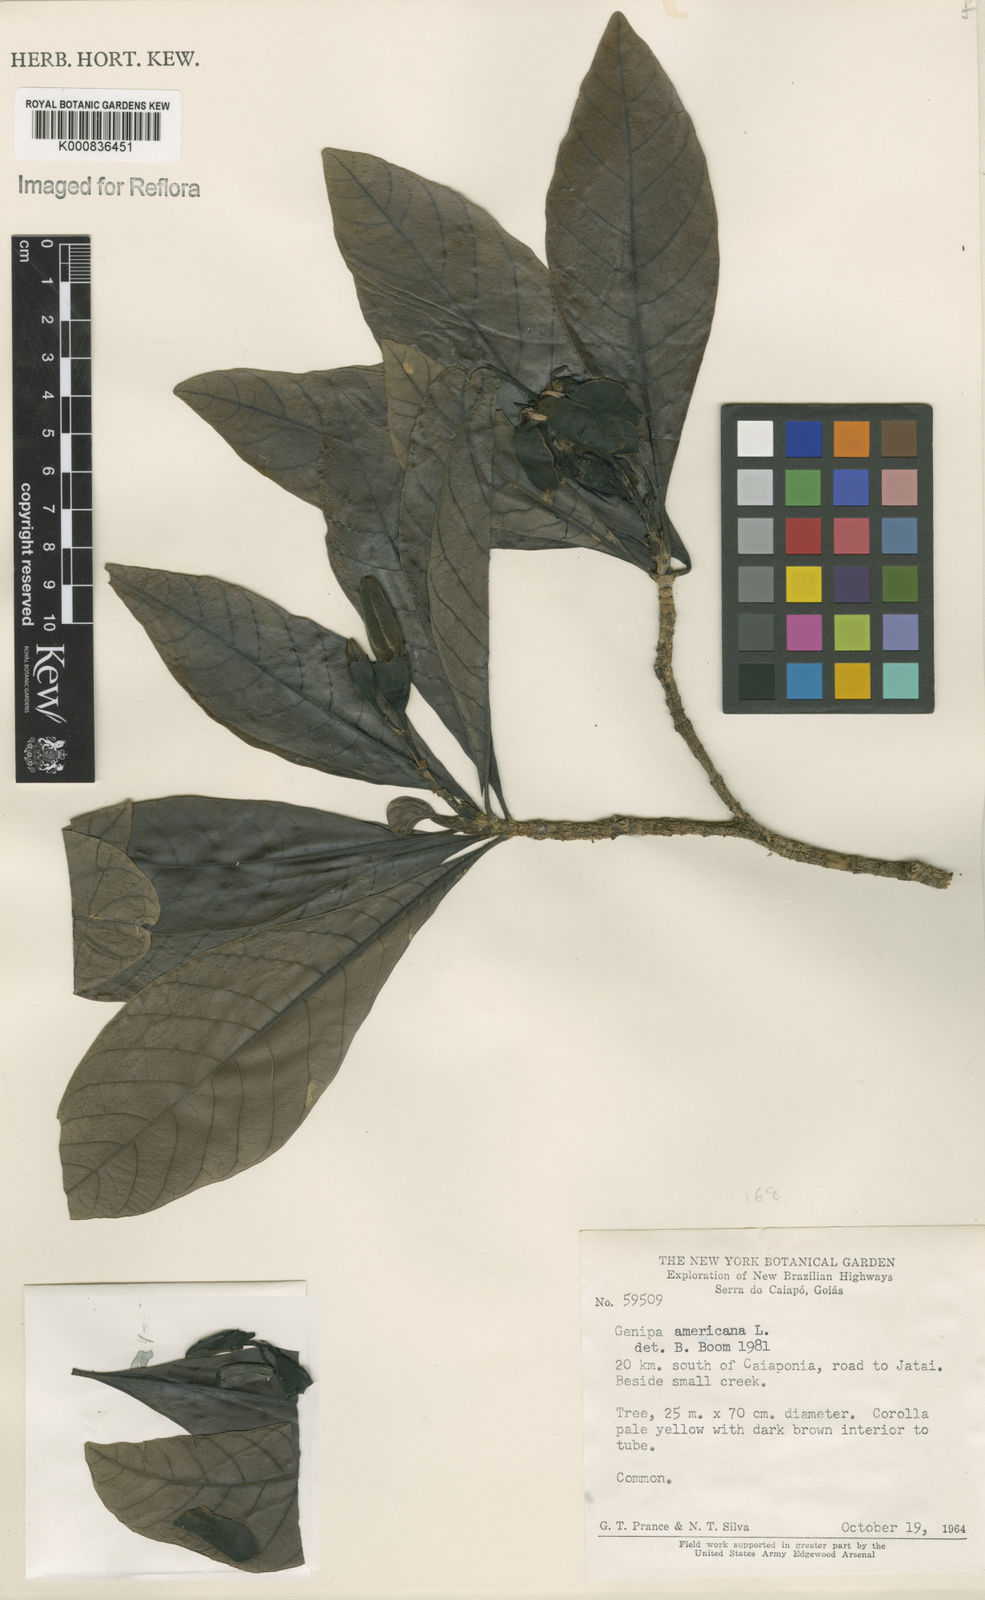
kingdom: Plantae
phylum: Tracheophyta
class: Magnoliopsida
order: Gentianales
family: Rubiaceae
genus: Genipa
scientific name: Genipa americana
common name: Genipap
